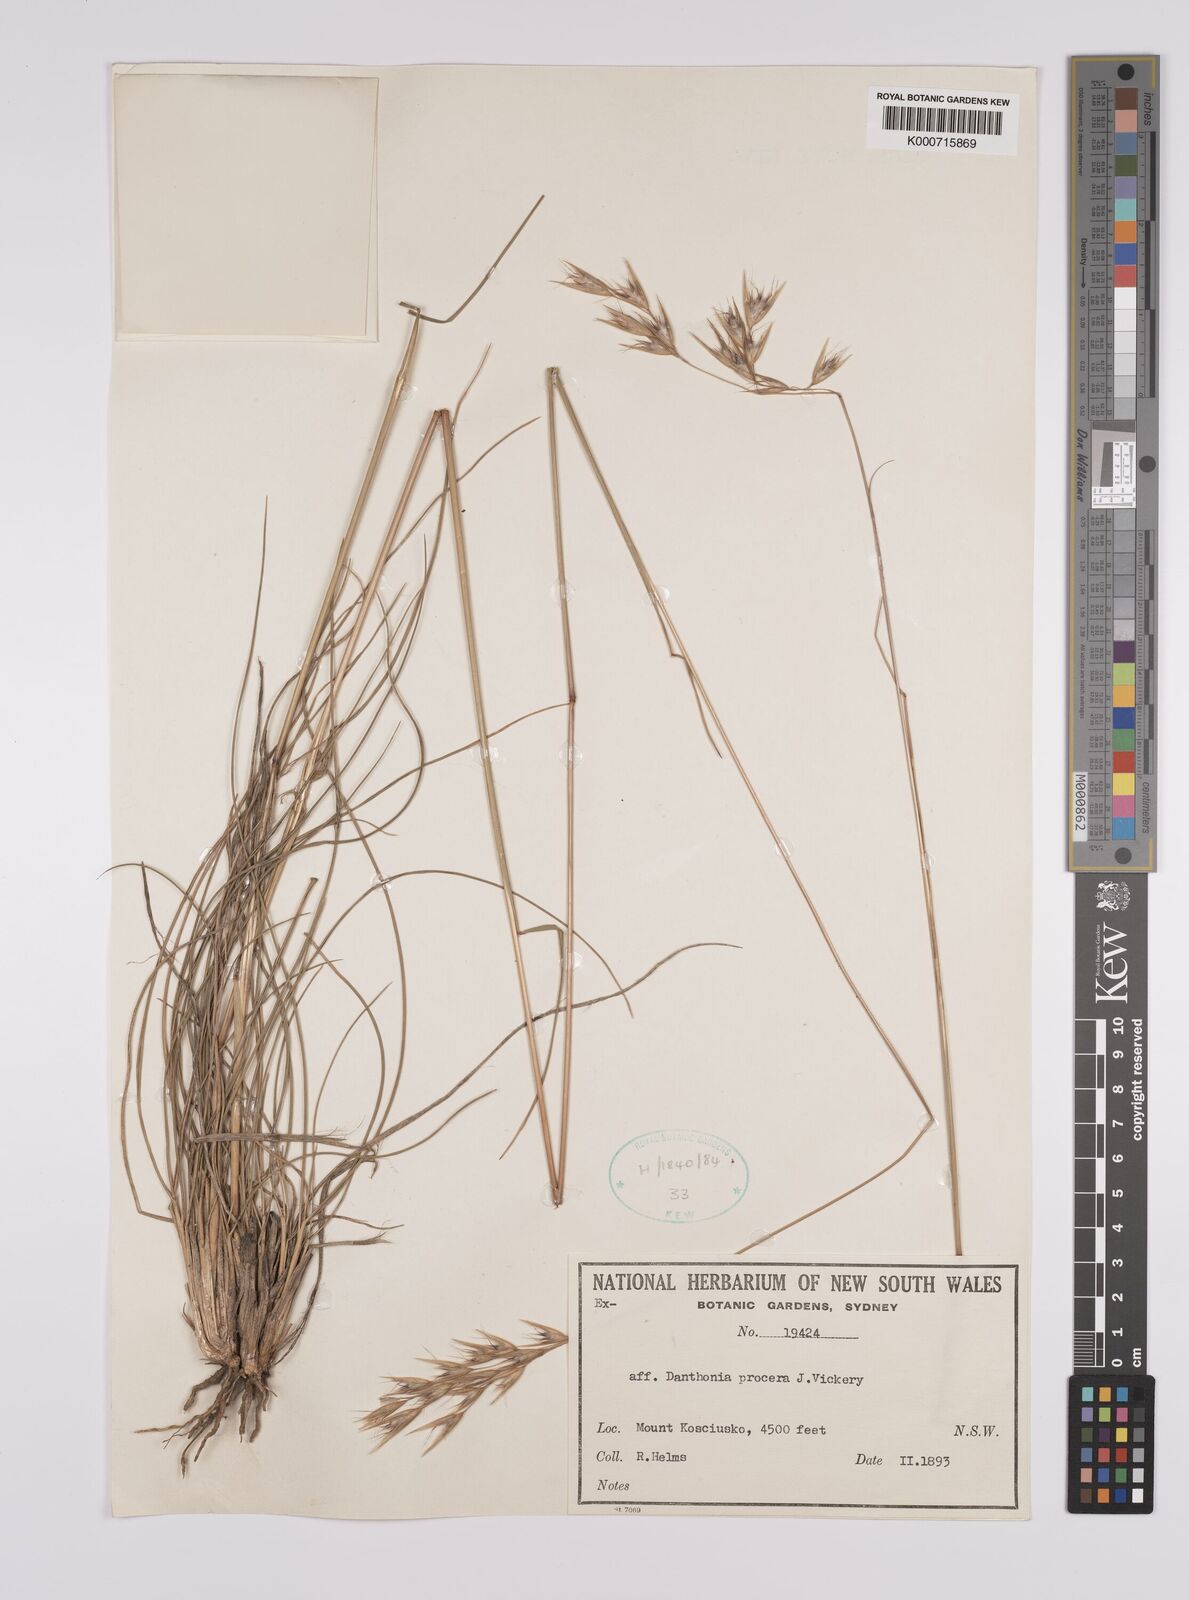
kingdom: Plantae
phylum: Tracheophyta
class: Liliopsida
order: Poales
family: Poaceae
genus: Rytidosperma
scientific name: Rytidosperma indutum
